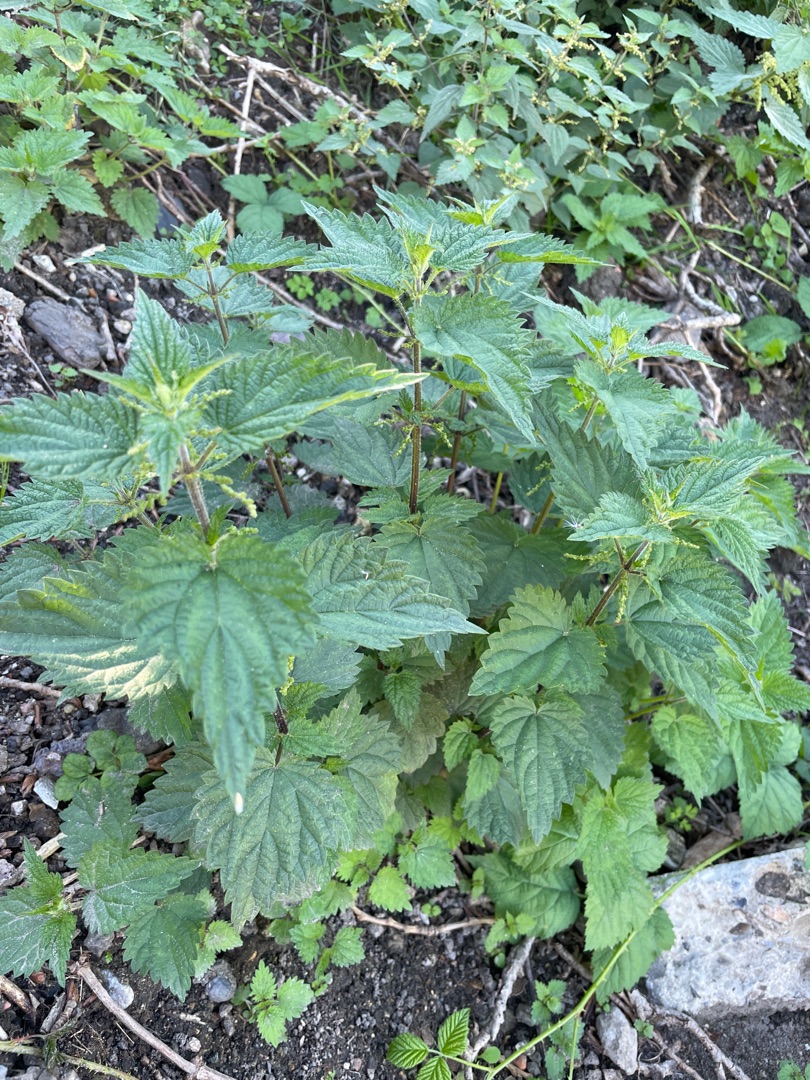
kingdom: Plantae
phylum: Tracheophyta
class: Magnoliopsida
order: Rosales
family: Urticaceae
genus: Urtica
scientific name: Urtica dioica
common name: Stor nælde
